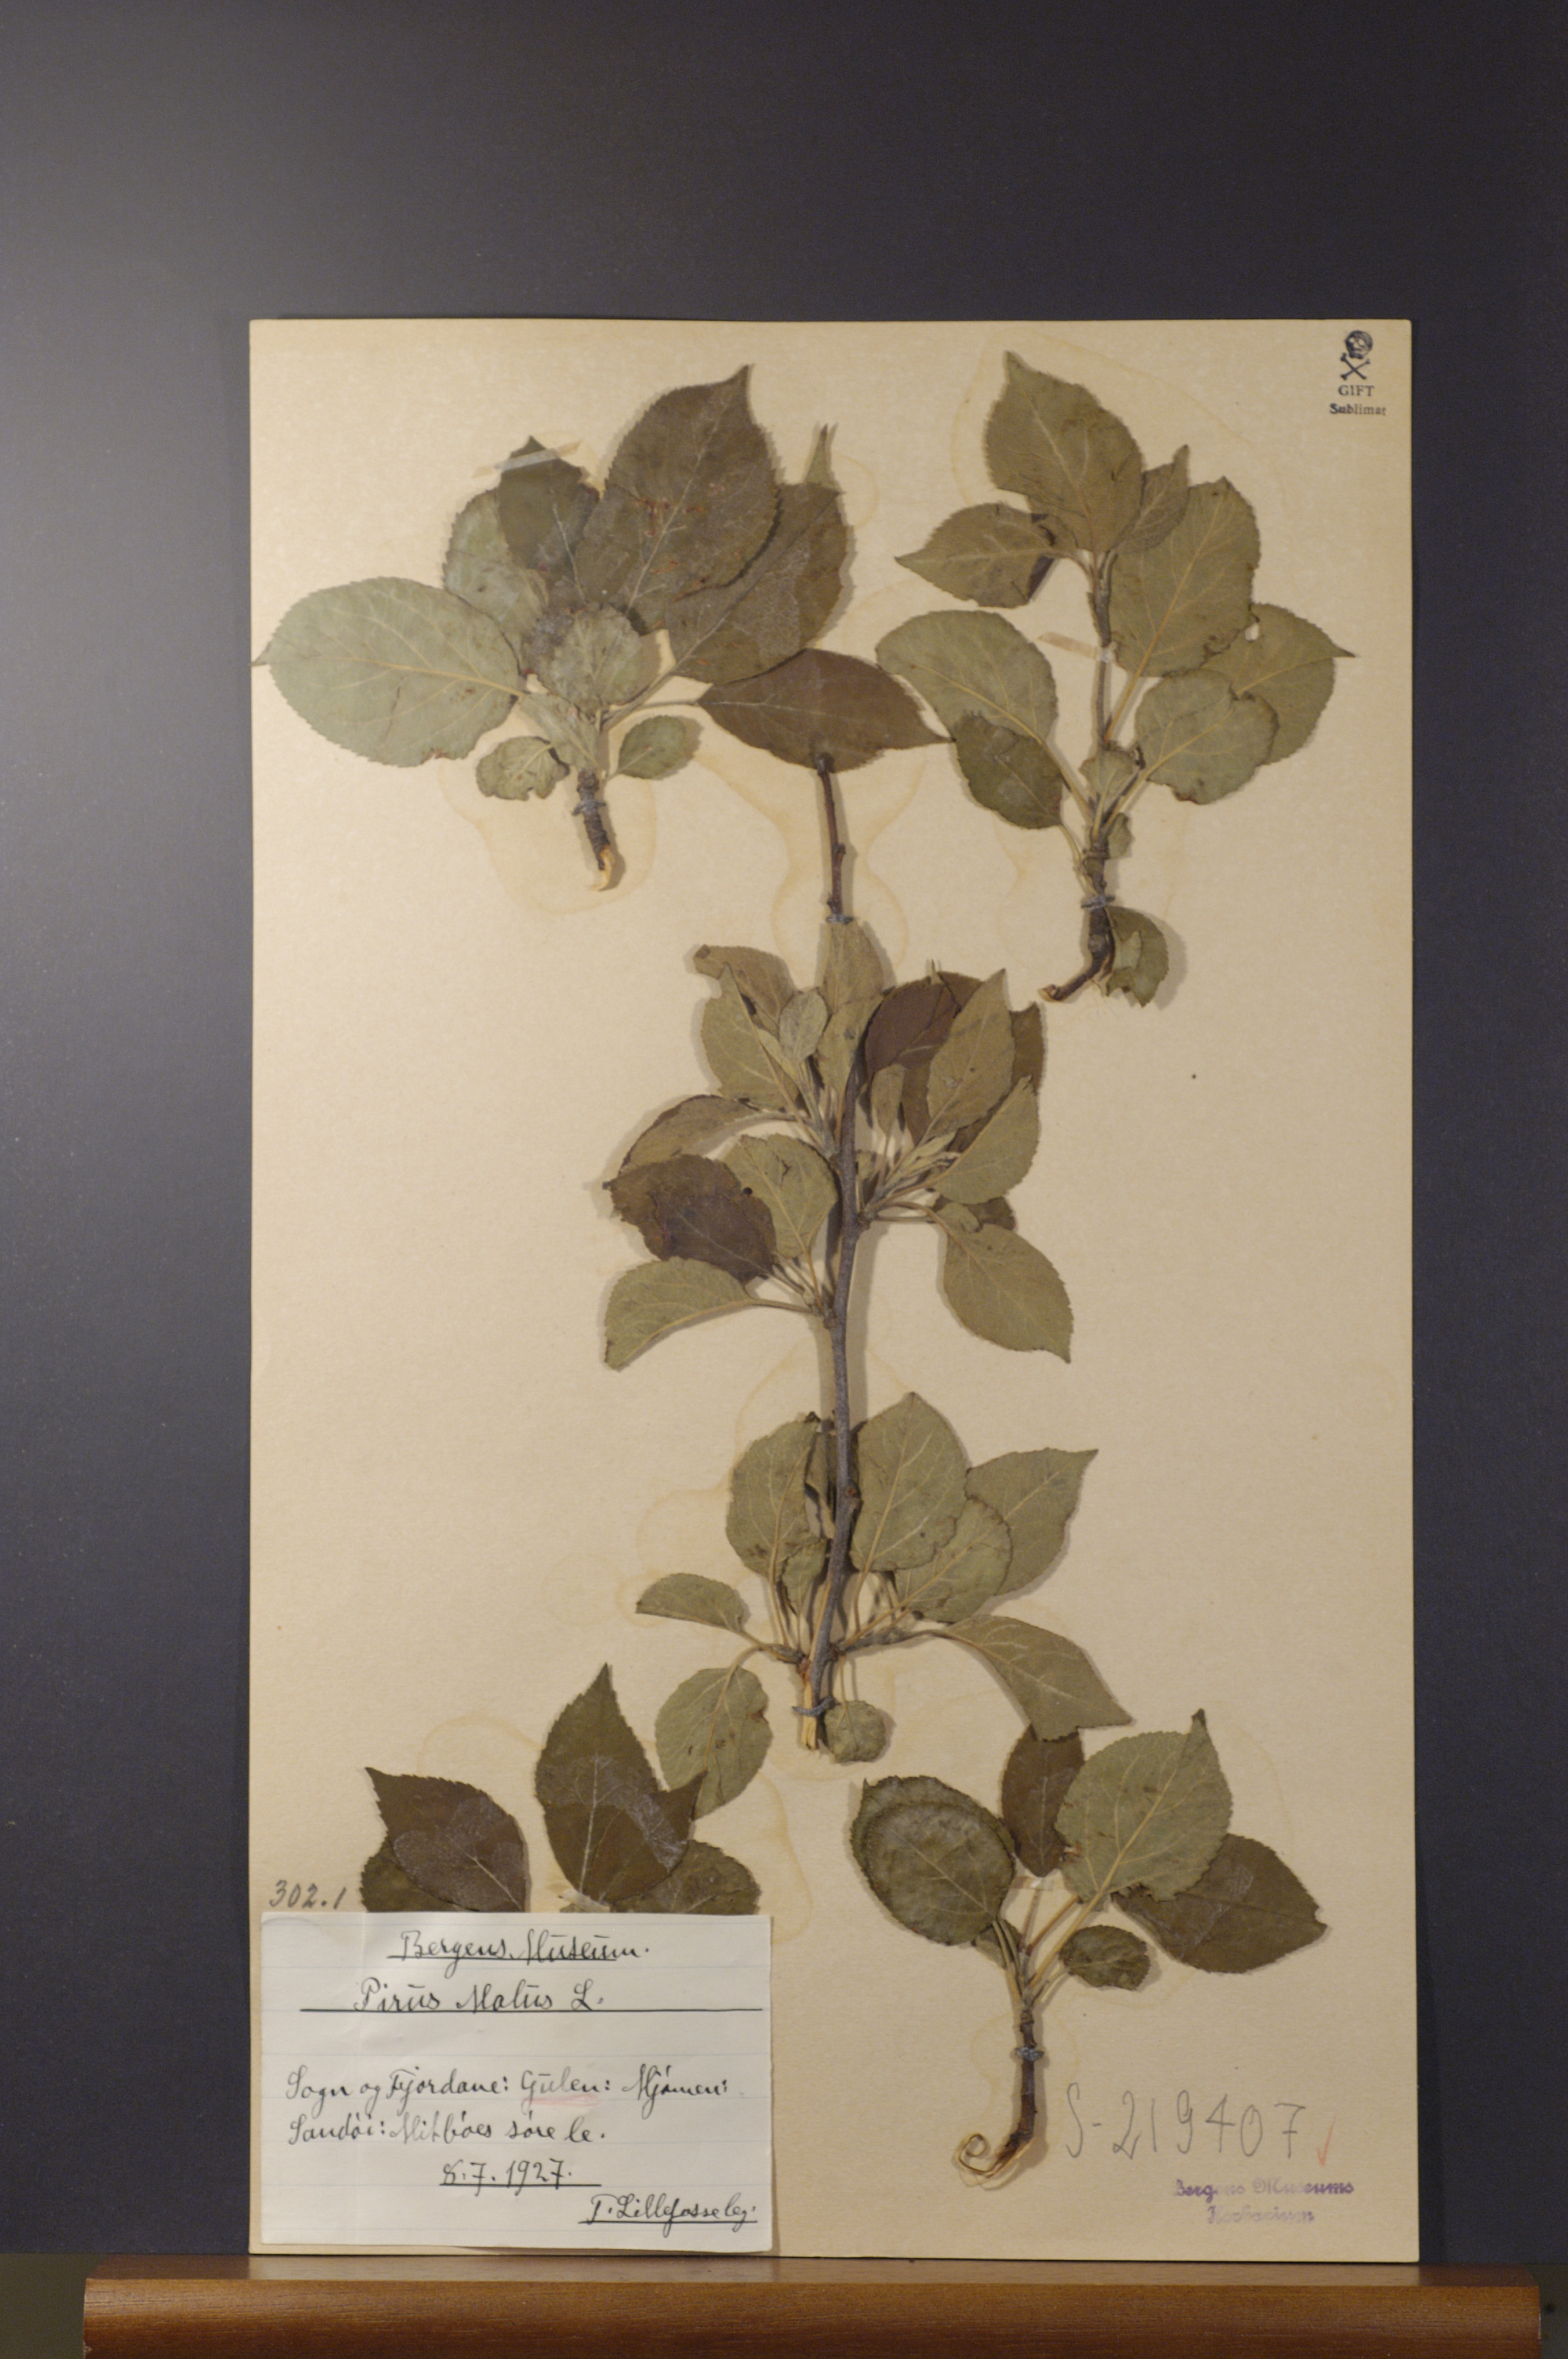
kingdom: Plantae
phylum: Tracheophyta
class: Magnoliopsida
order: Rosales
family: Rosaceae
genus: Malus
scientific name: Malus domestica
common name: Apple
